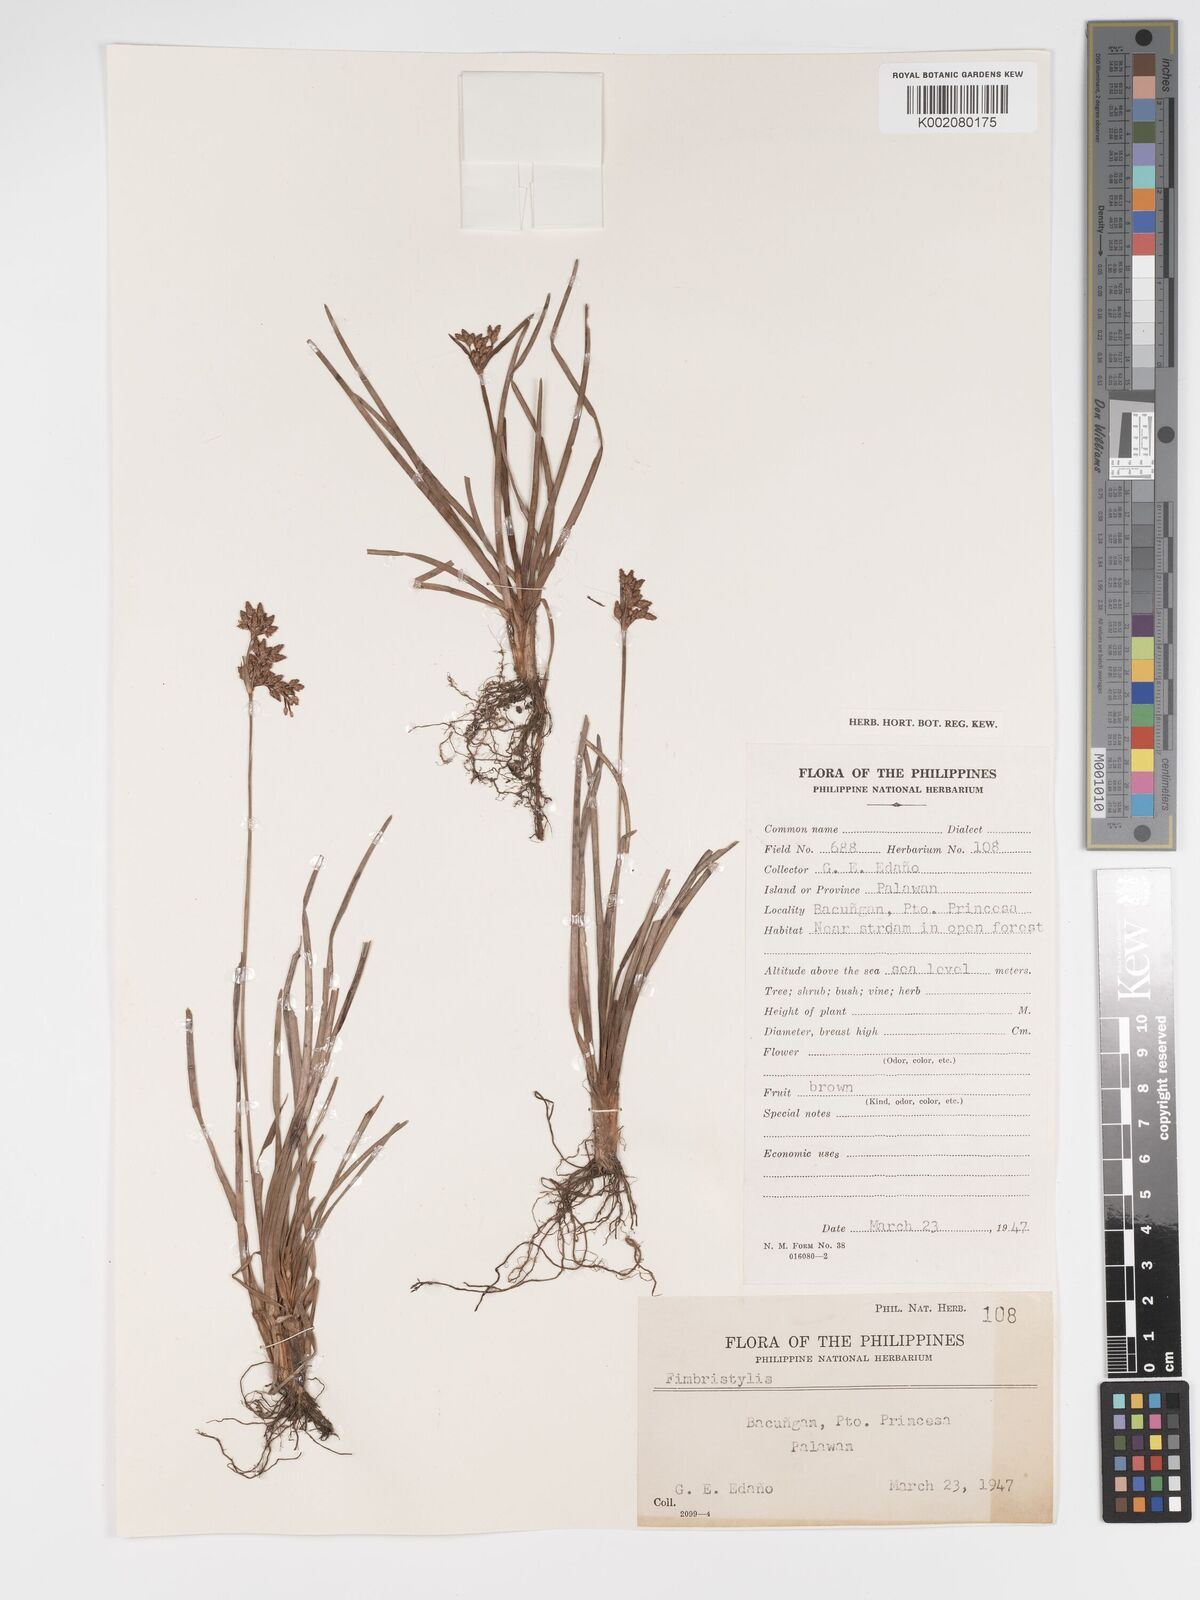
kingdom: Plantae
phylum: Tracheophyta
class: Liliopsida
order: Poales
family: Cyperaceae
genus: Fimbristylis
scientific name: Fimbristylis
